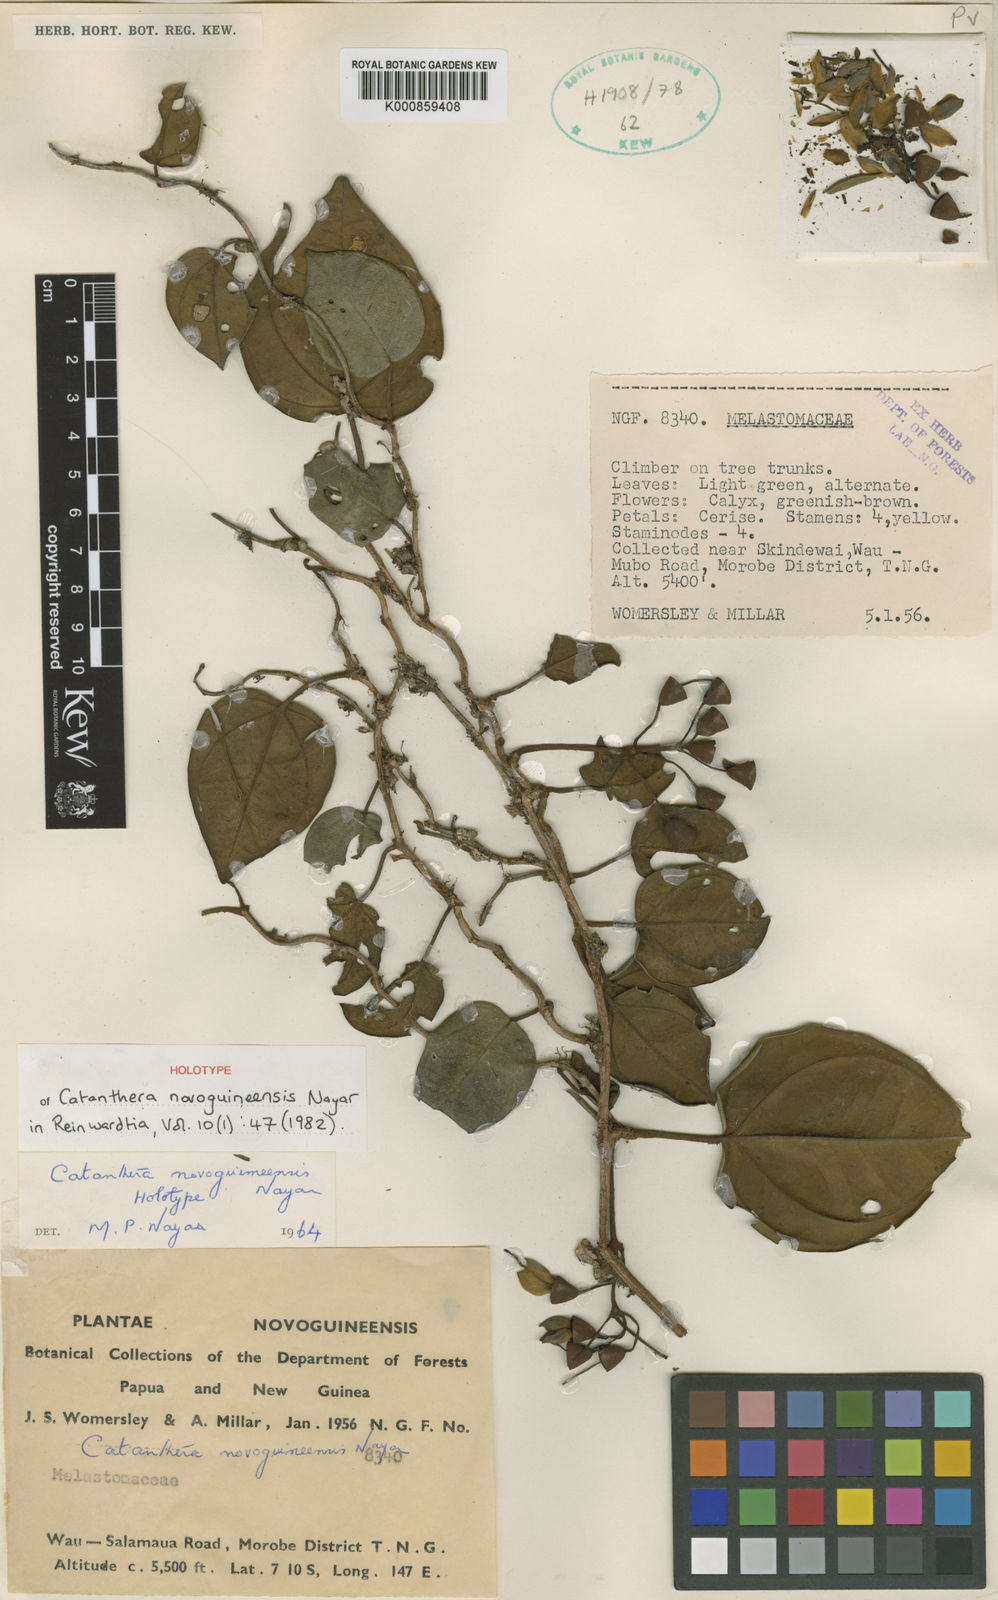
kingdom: Plantae
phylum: Tracheophyta
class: Magnoliopsida
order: Myrtales
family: Melastomataceae
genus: Catanthera
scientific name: Catanthera novoguineensis
